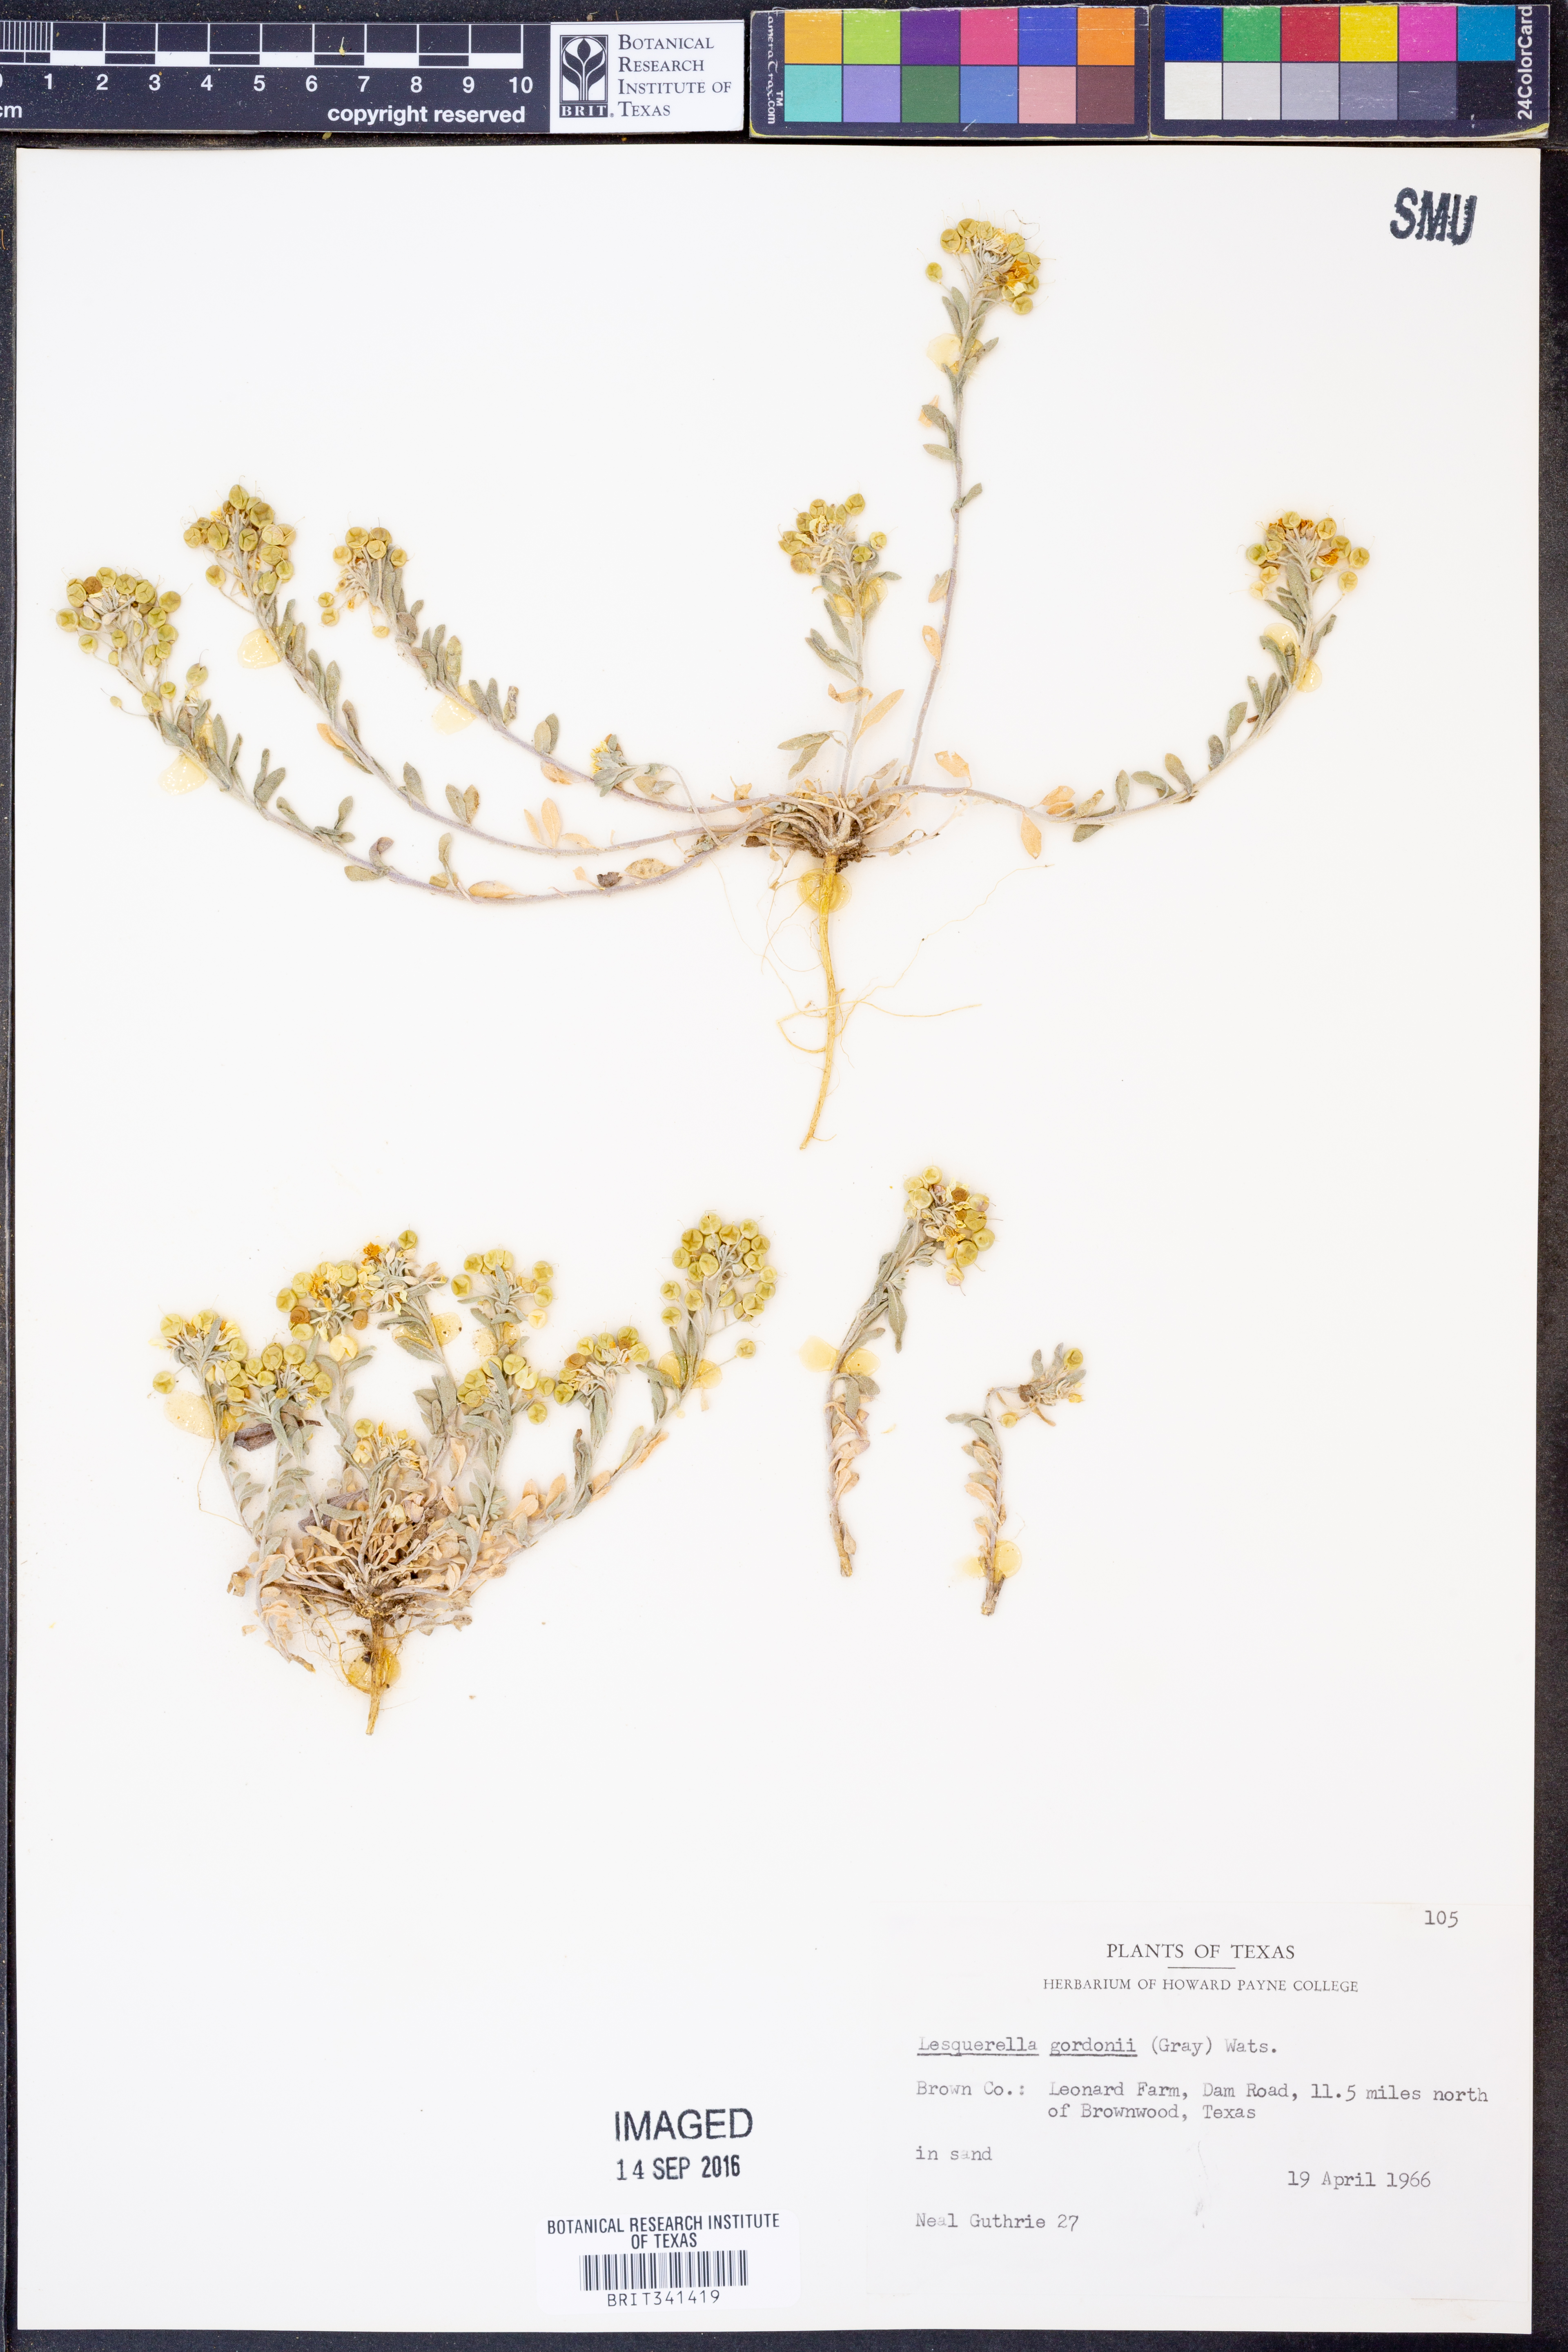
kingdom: Plantae
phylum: Tracheophyta
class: Magnoliopsida
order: Brassicales
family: Brassicaceae
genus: Physaria
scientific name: Physaria gordonii
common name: Gordon's bladderpod
